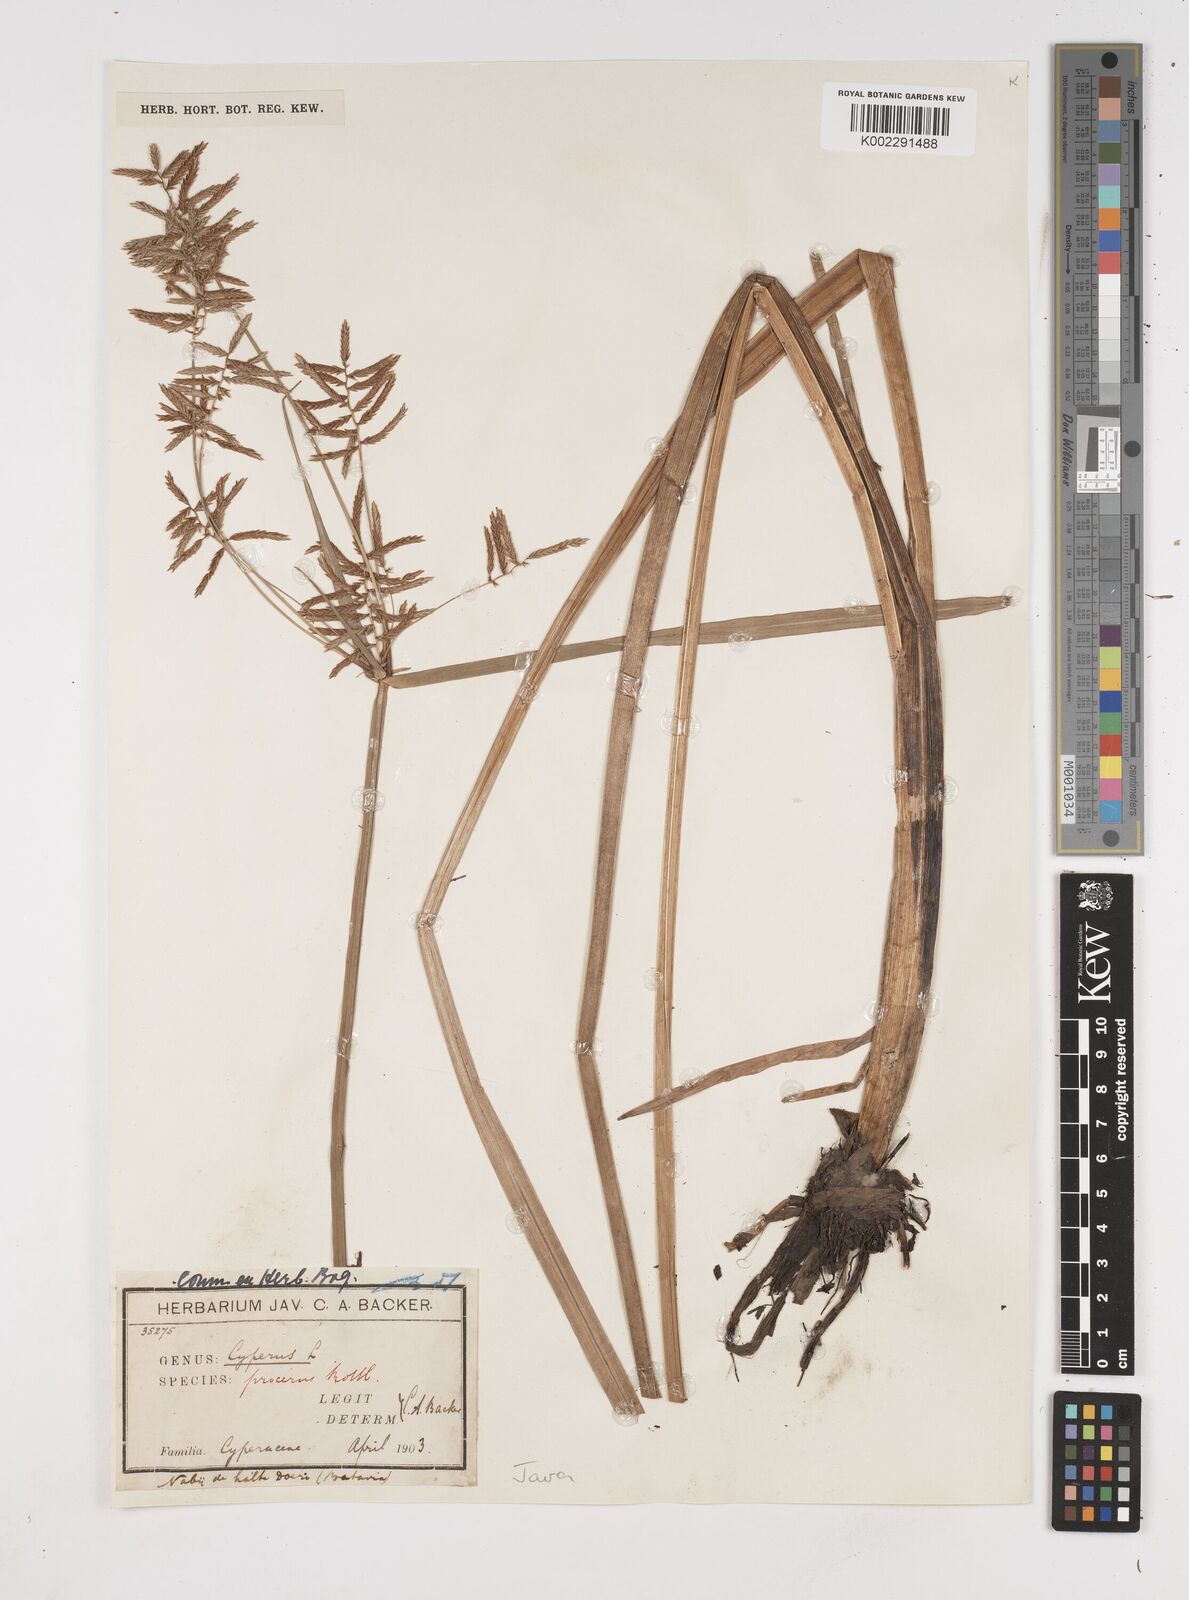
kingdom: Plantae
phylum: Tracheophyta
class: Liliopsida
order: Poales
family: Cyperaceae
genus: Cyperus
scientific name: Cyperus procerus
